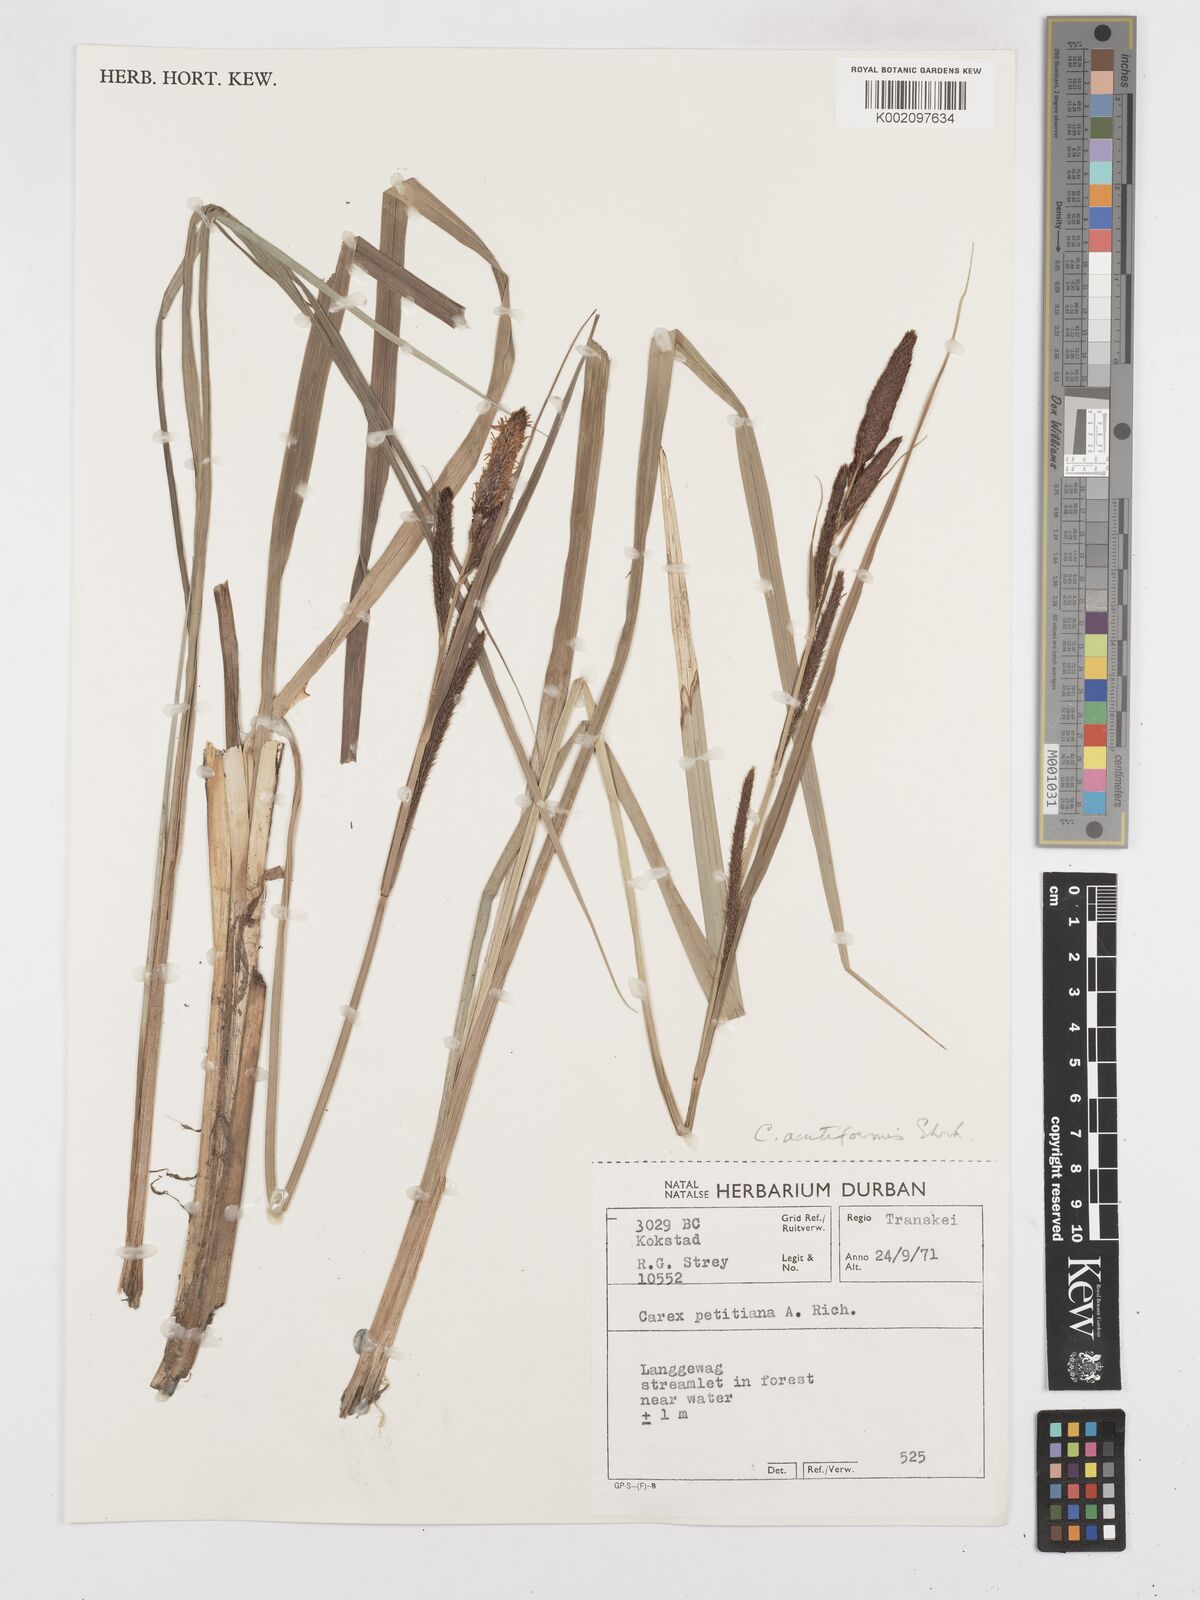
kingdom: Plantae
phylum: Tracheophyta
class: Liliopsida
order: Poales
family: Cyperaceae
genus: Carex
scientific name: Carex acutiformis
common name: Lesser pond-sedge
